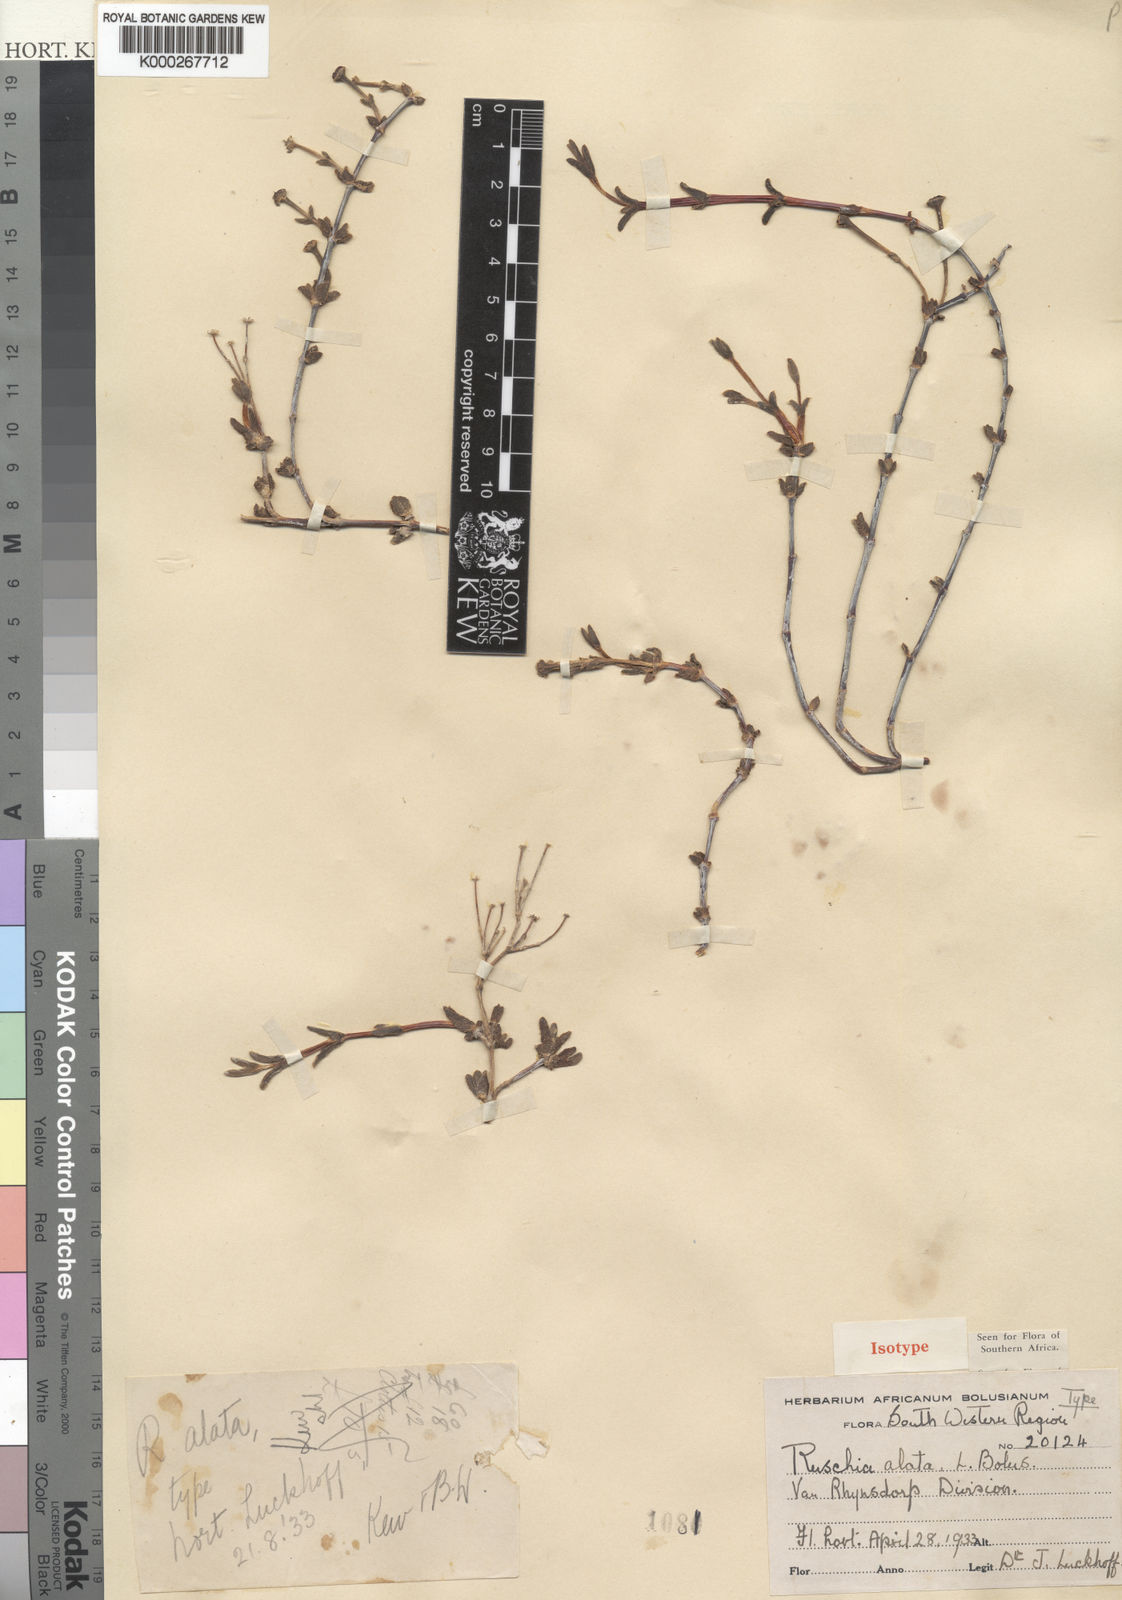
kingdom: Plantae
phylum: Tracheophyta
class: Magnoliopsida
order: Caryophyllales
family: Aizoaceae
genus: Ruschia
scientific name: Ruschia alata
